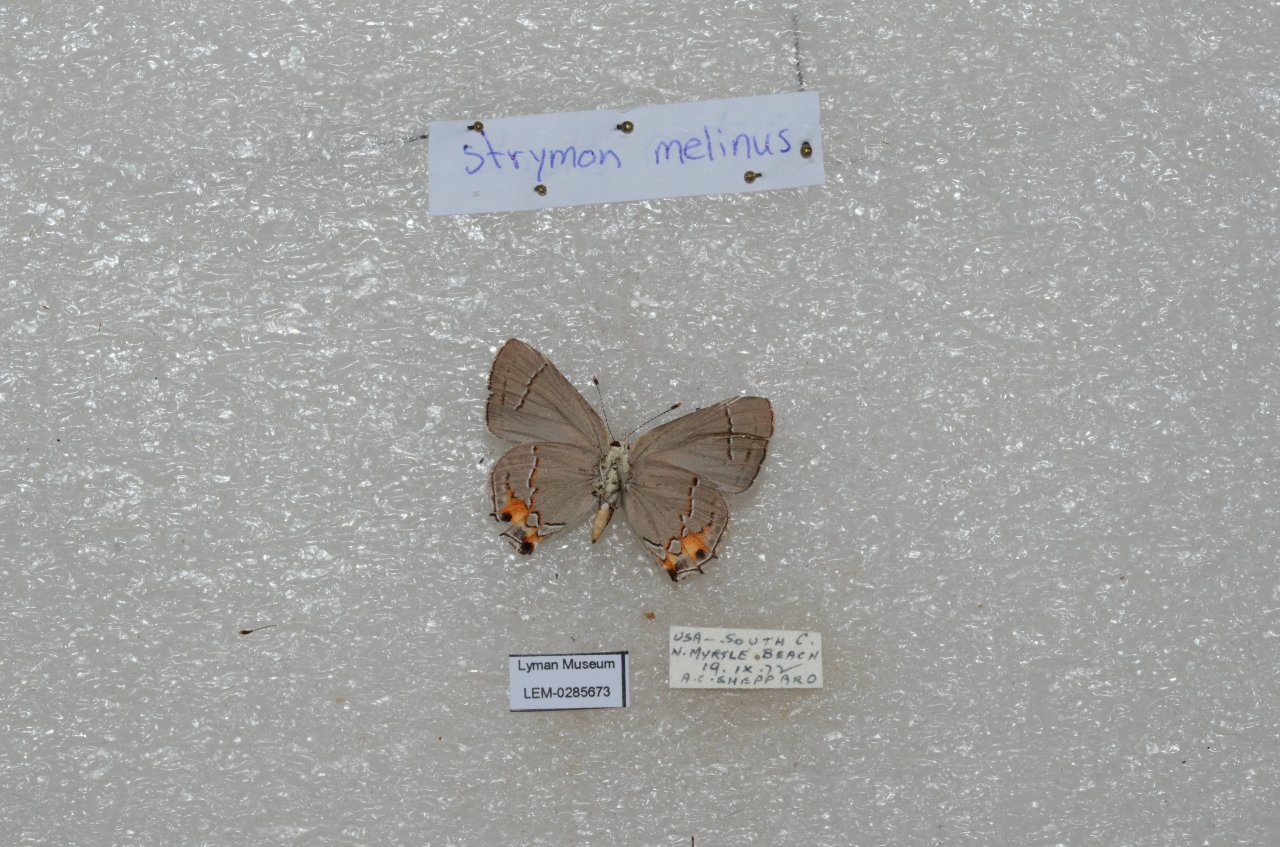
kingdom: Animalia
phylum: Arthropoda
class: Insecta
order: Lepidoptera
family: Lycaenidae
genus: Strymon
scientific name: Strymon melinus
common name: Gray Hairstreak
